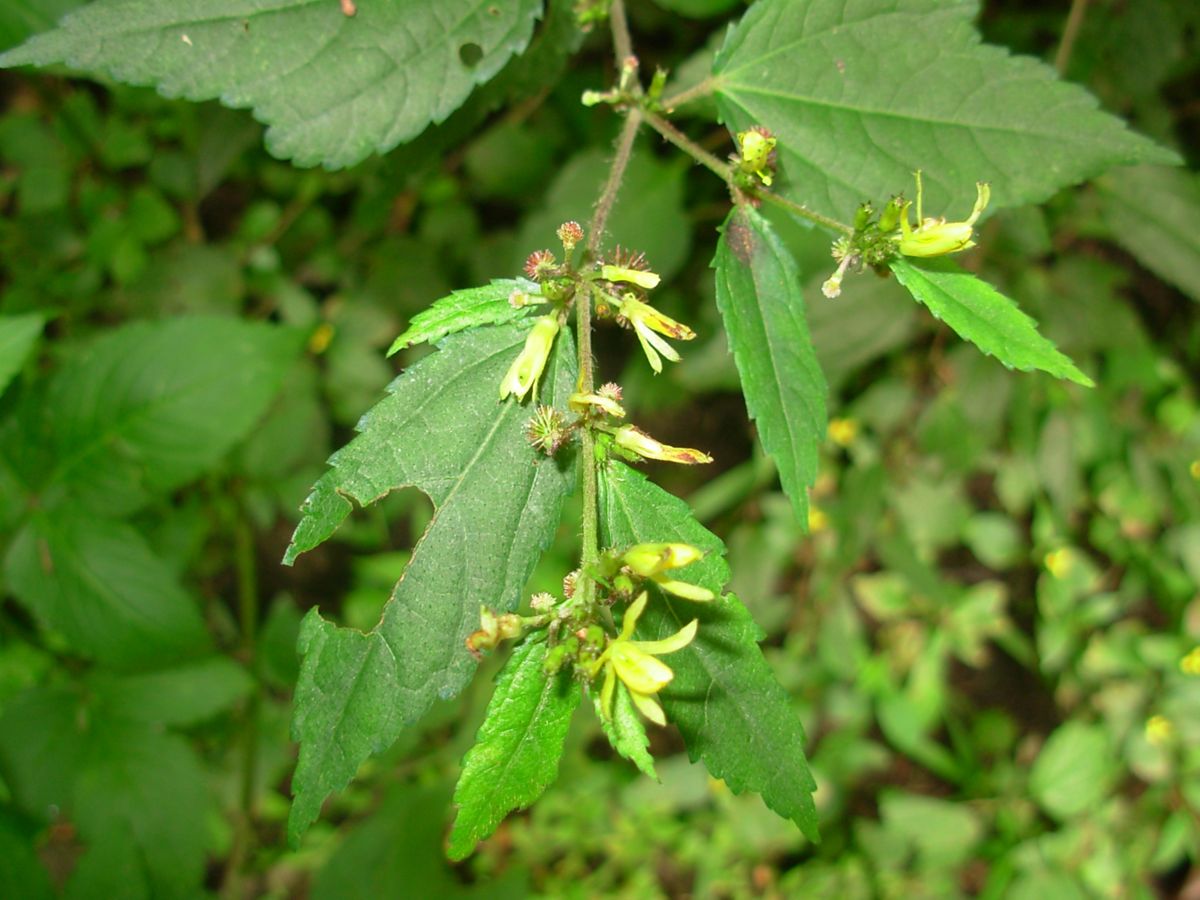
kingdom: Plantae
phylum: Tracheophyta
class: Magnoliopsida
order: Malvales
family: Malvaceae
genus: Triumfetta
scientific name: Triumfetta bogotensis
